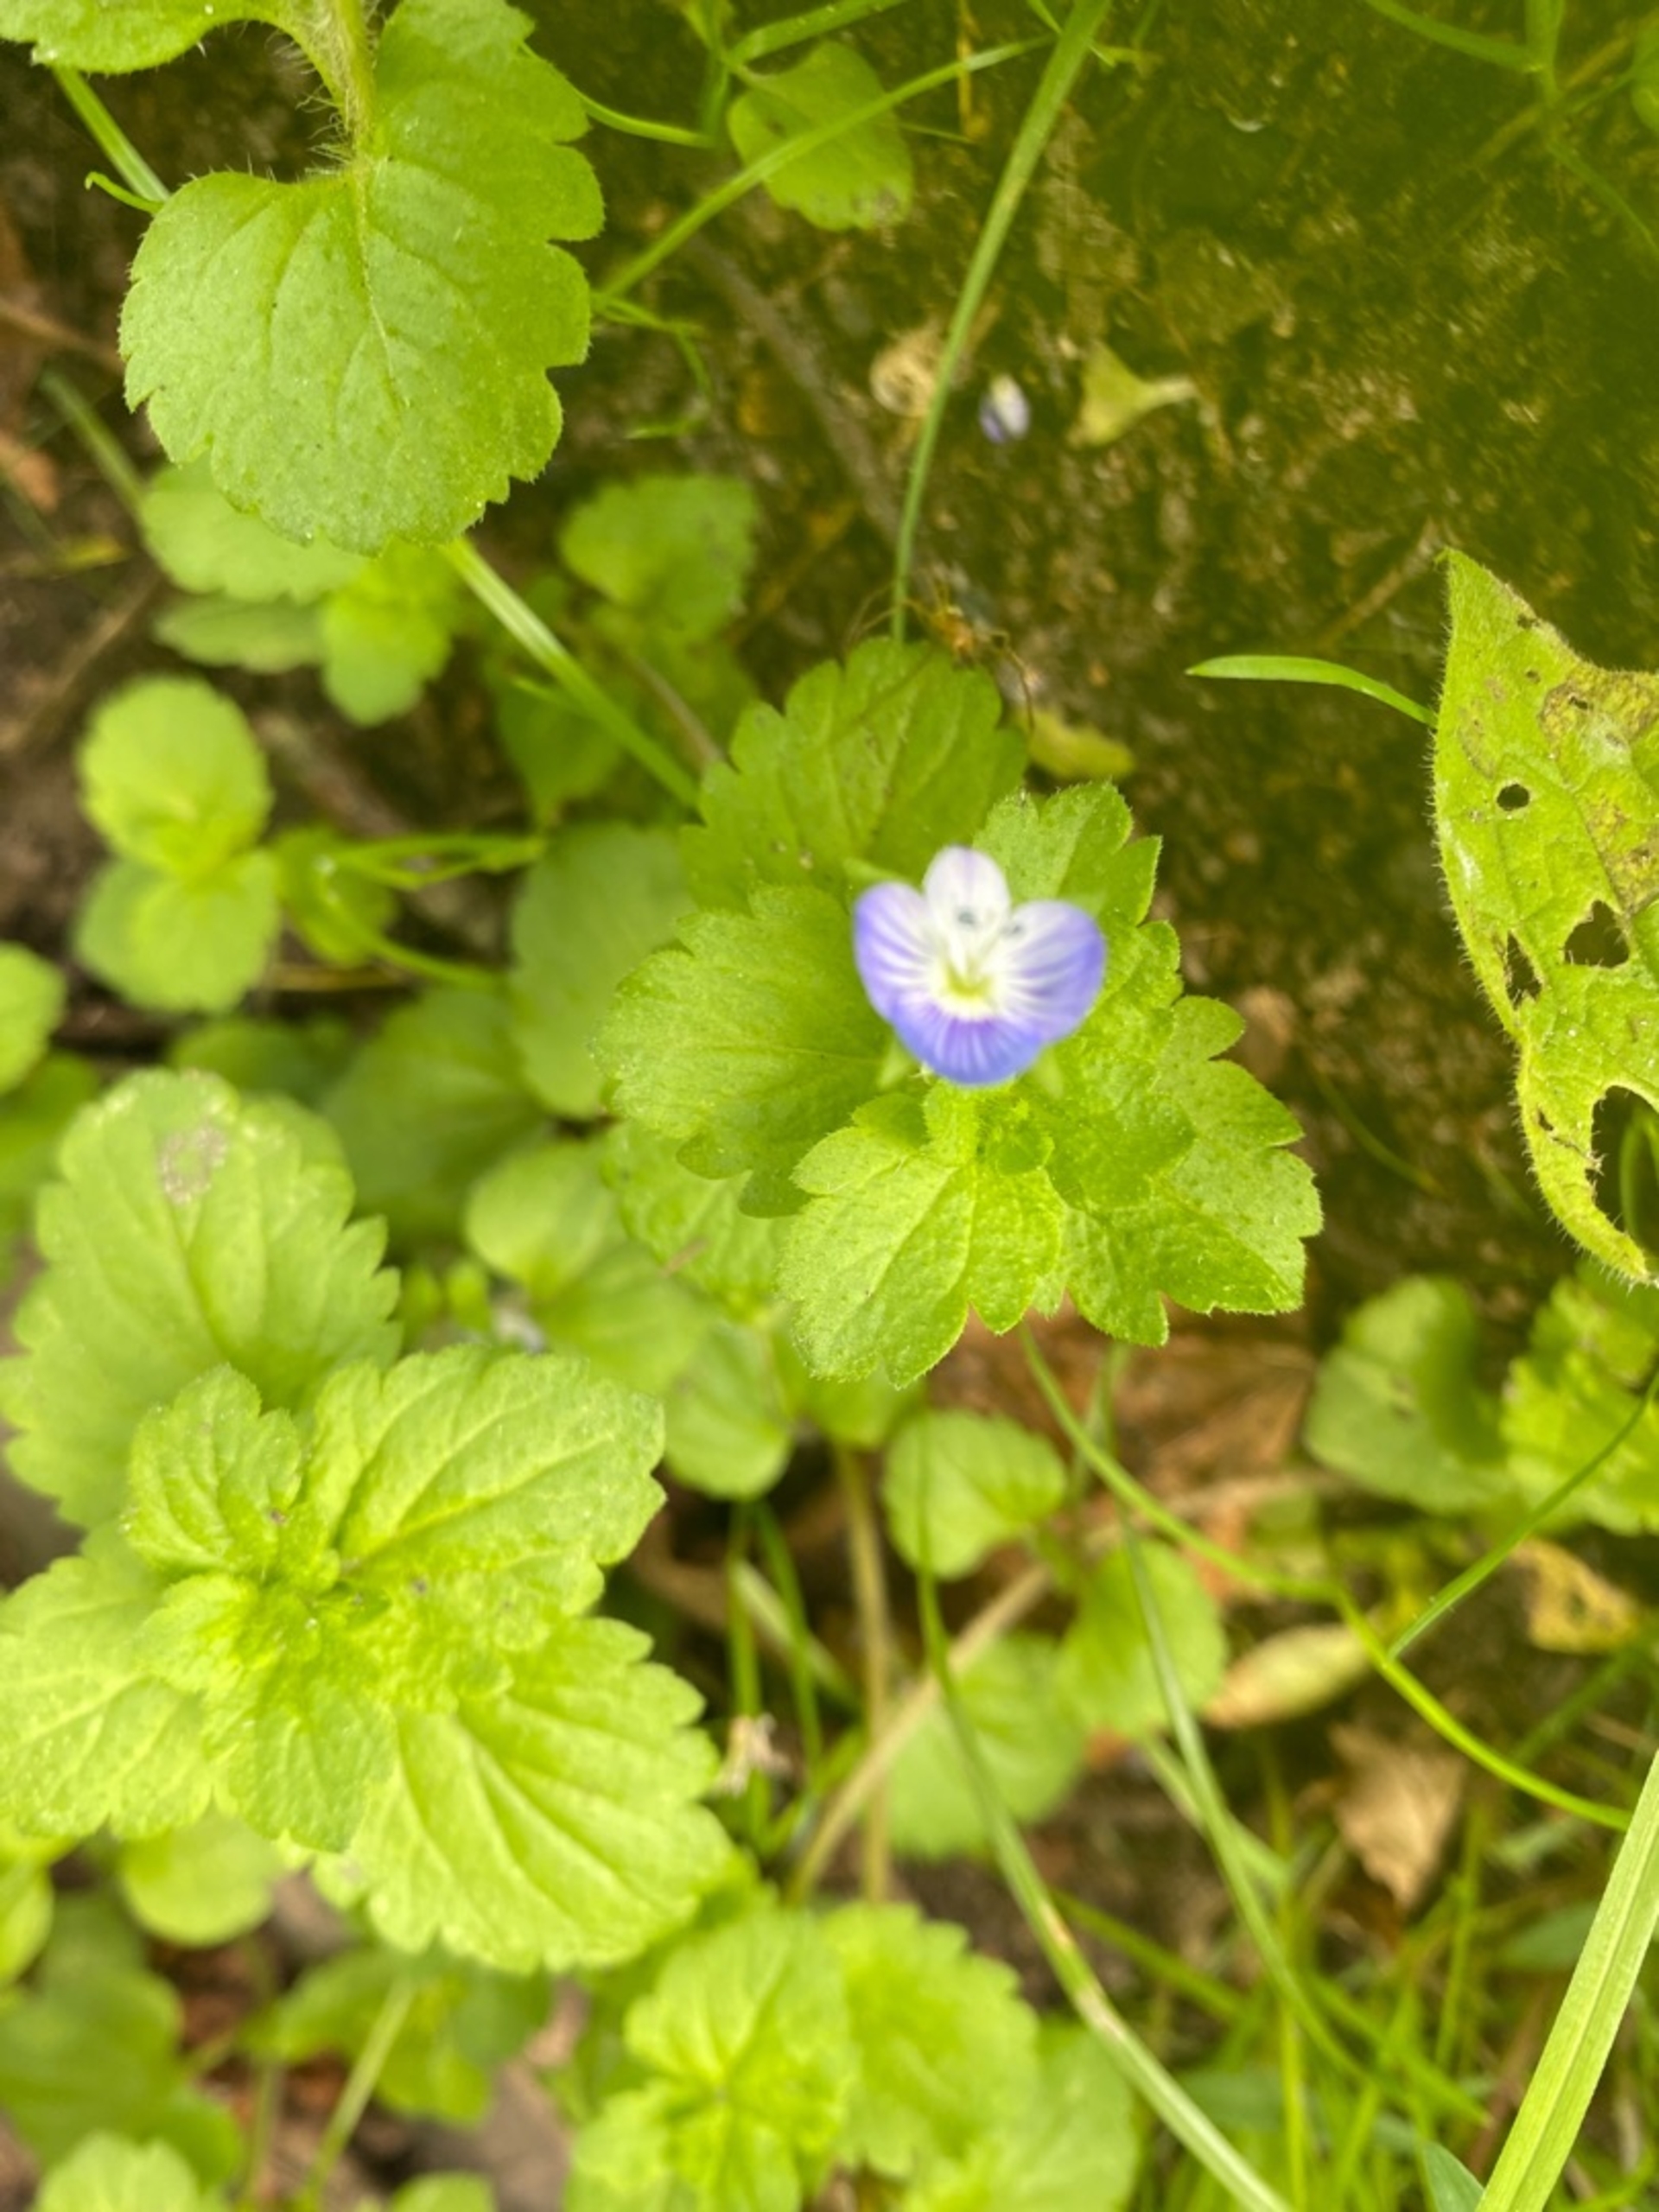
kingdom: Plantae
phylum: Tracheophyta
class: Magnoliopsida
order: Lamiales
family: Plantaginaceae
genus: Veronica
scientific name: Veronica persica
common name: Storkronet ærenpris
